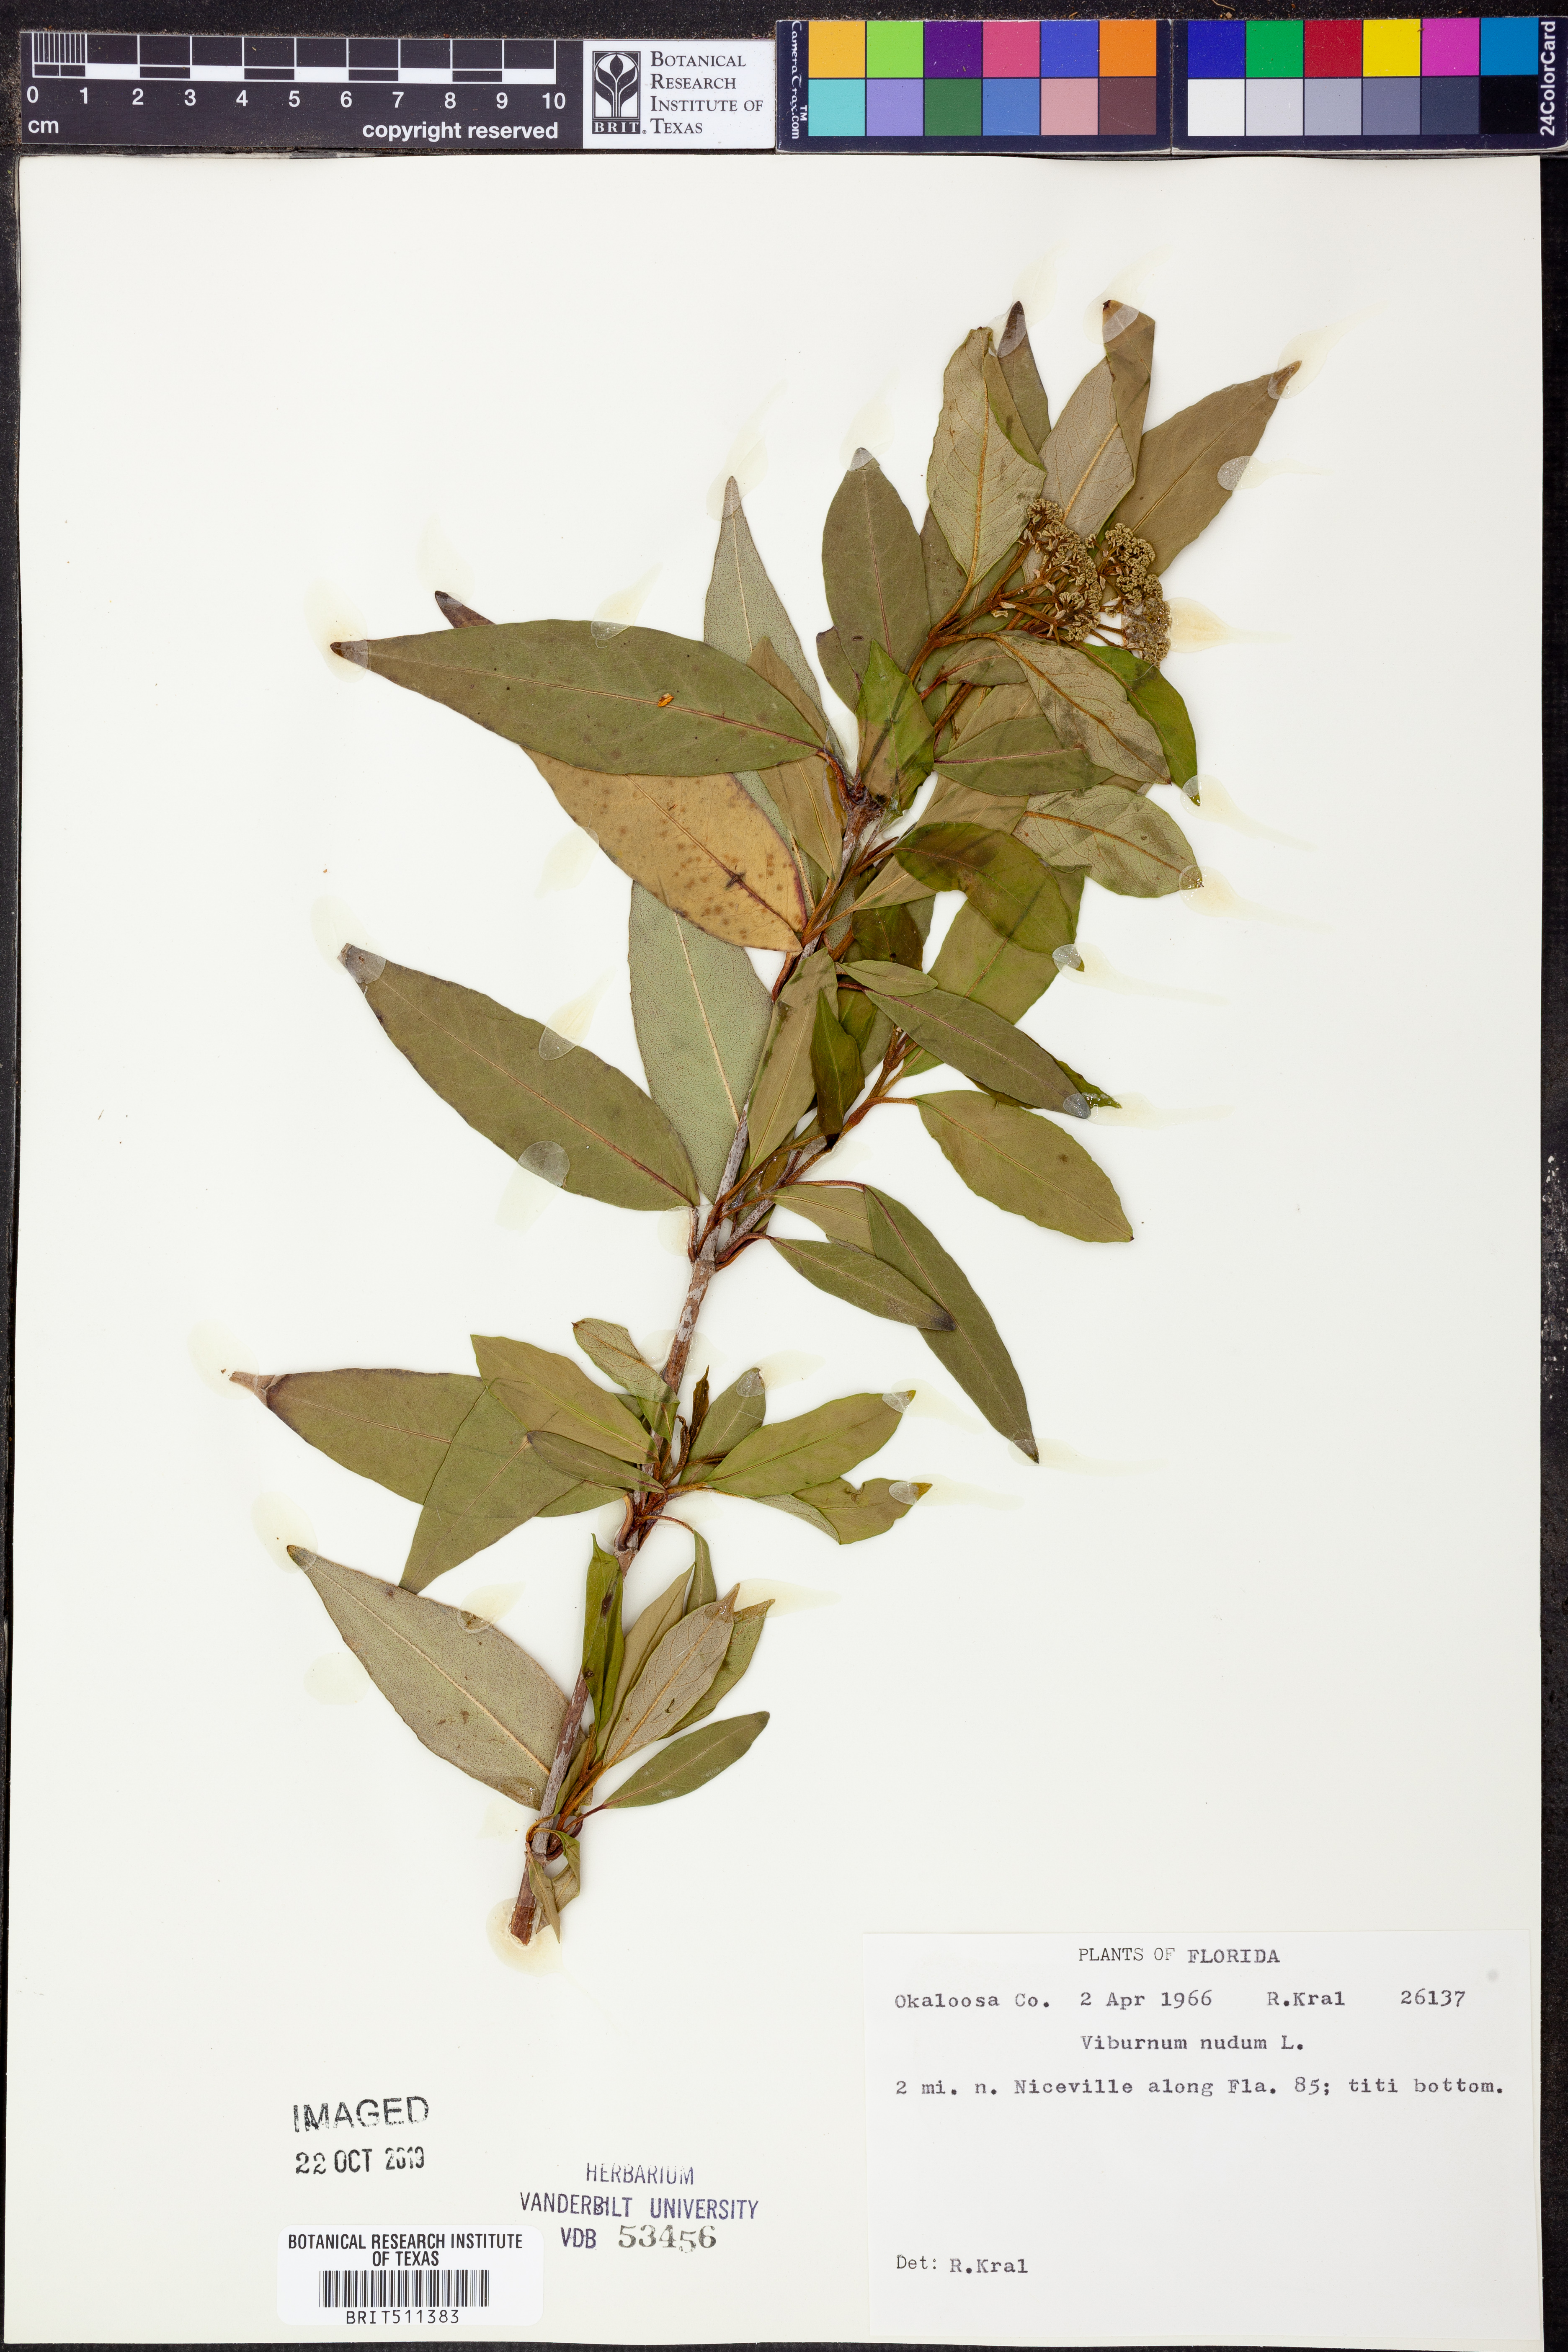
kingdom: Plantae
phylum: Tracheophyta
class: Magnoliopsida
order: Dipsacales
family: Viburnaceae
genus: Viburnum
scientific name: Viburnum nudum
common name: Possum haw
